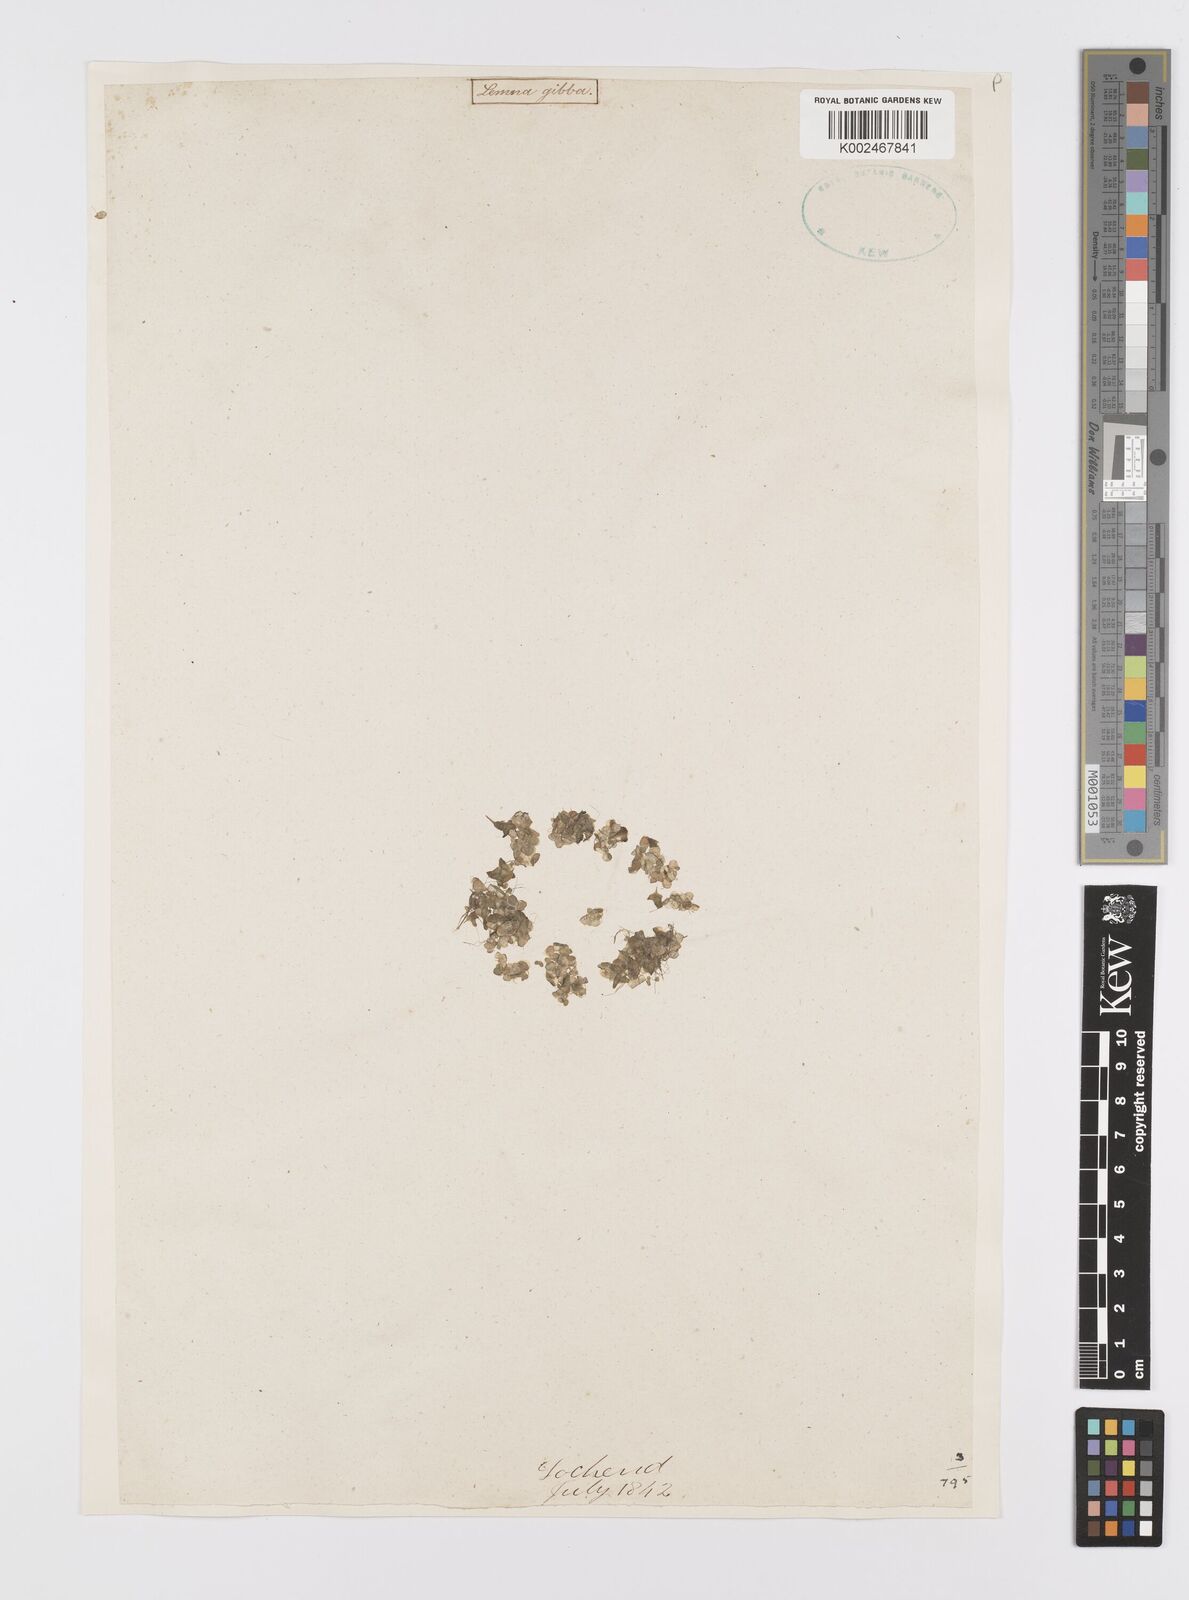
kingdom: Plantae
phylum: Tracheophyta
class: Liliopsida
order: Alismatales
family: Araceae
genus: Lemna
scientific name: Lemna gibba
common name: Fat duckweed
